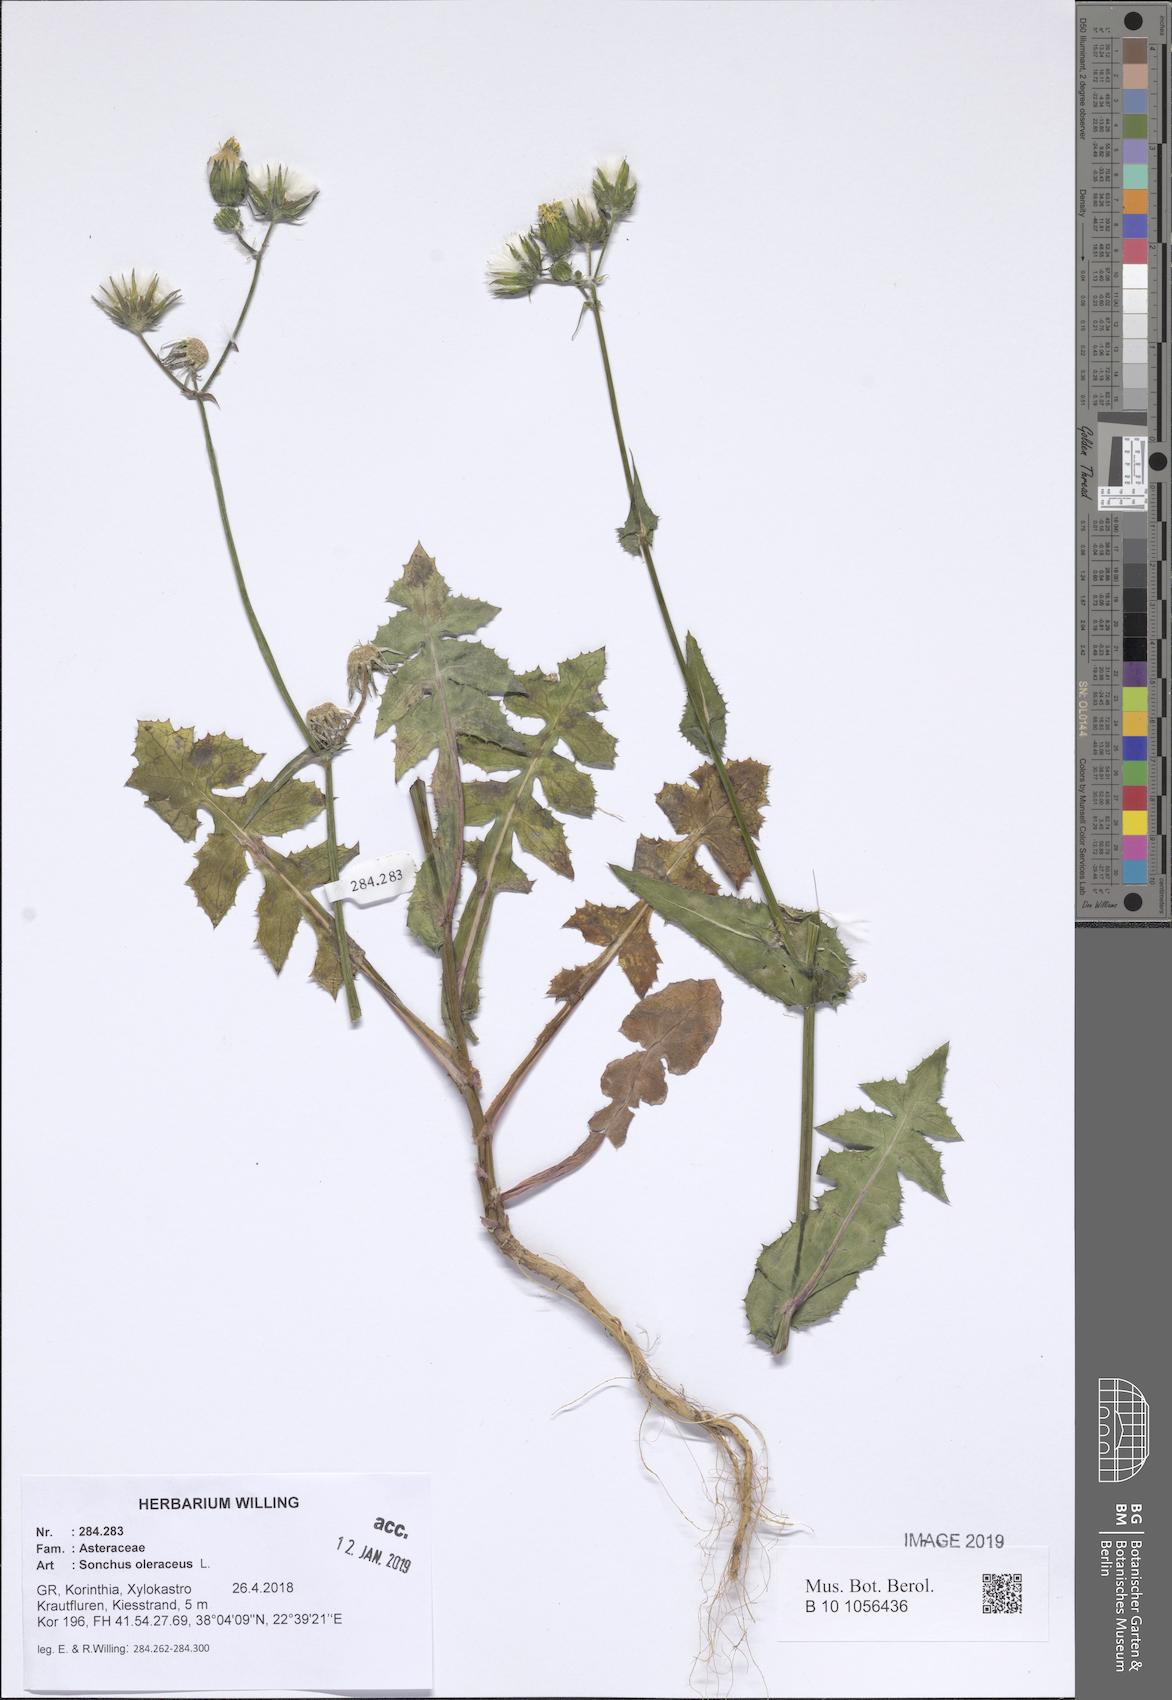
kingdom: Plantae
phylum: Tracheophyta
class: Magnoliopsida
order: Asterales
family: Asteraceae
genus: Sonchus
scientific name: Sonchus oleraceus
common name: Common sowthistle
